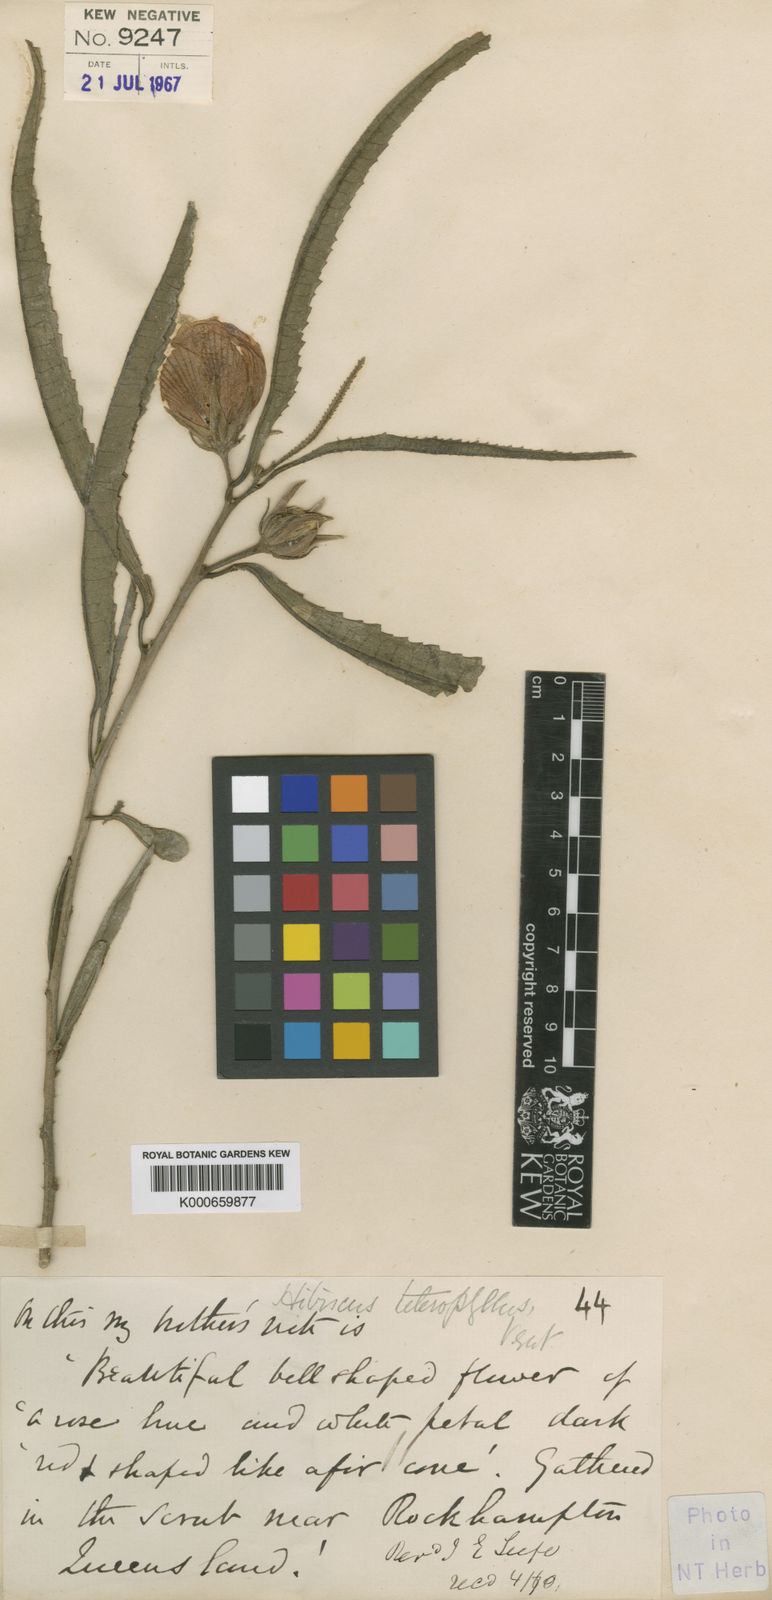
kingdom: Plantae
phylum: Tracheophyta
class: Magnoliopsida
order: Malvales
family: Malvaceae
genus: Hibiscus
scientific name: Hibiscus heterophyllus
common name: Queensland-sorrel
